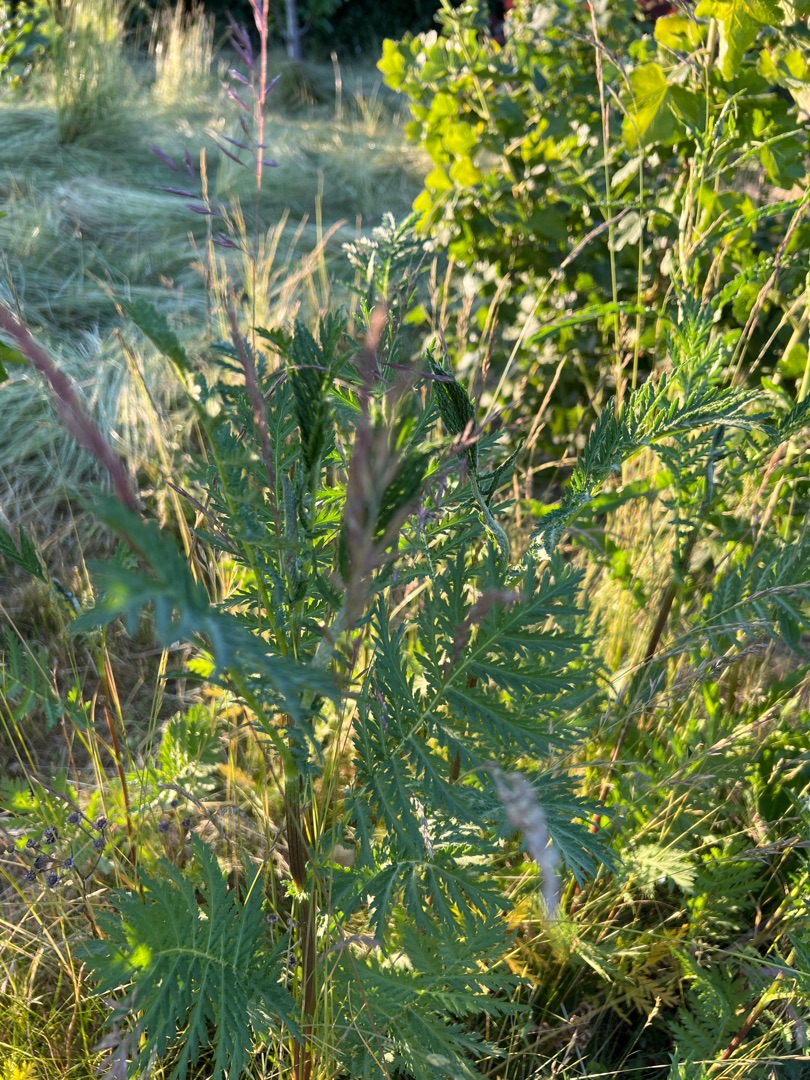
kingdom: Plantae
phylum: Tracheophyta
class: Magnoliopsida
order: Asterales
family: Asteraceae
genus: Tanacetum
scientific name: Tanacetum vulgare
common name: Rejnfan
